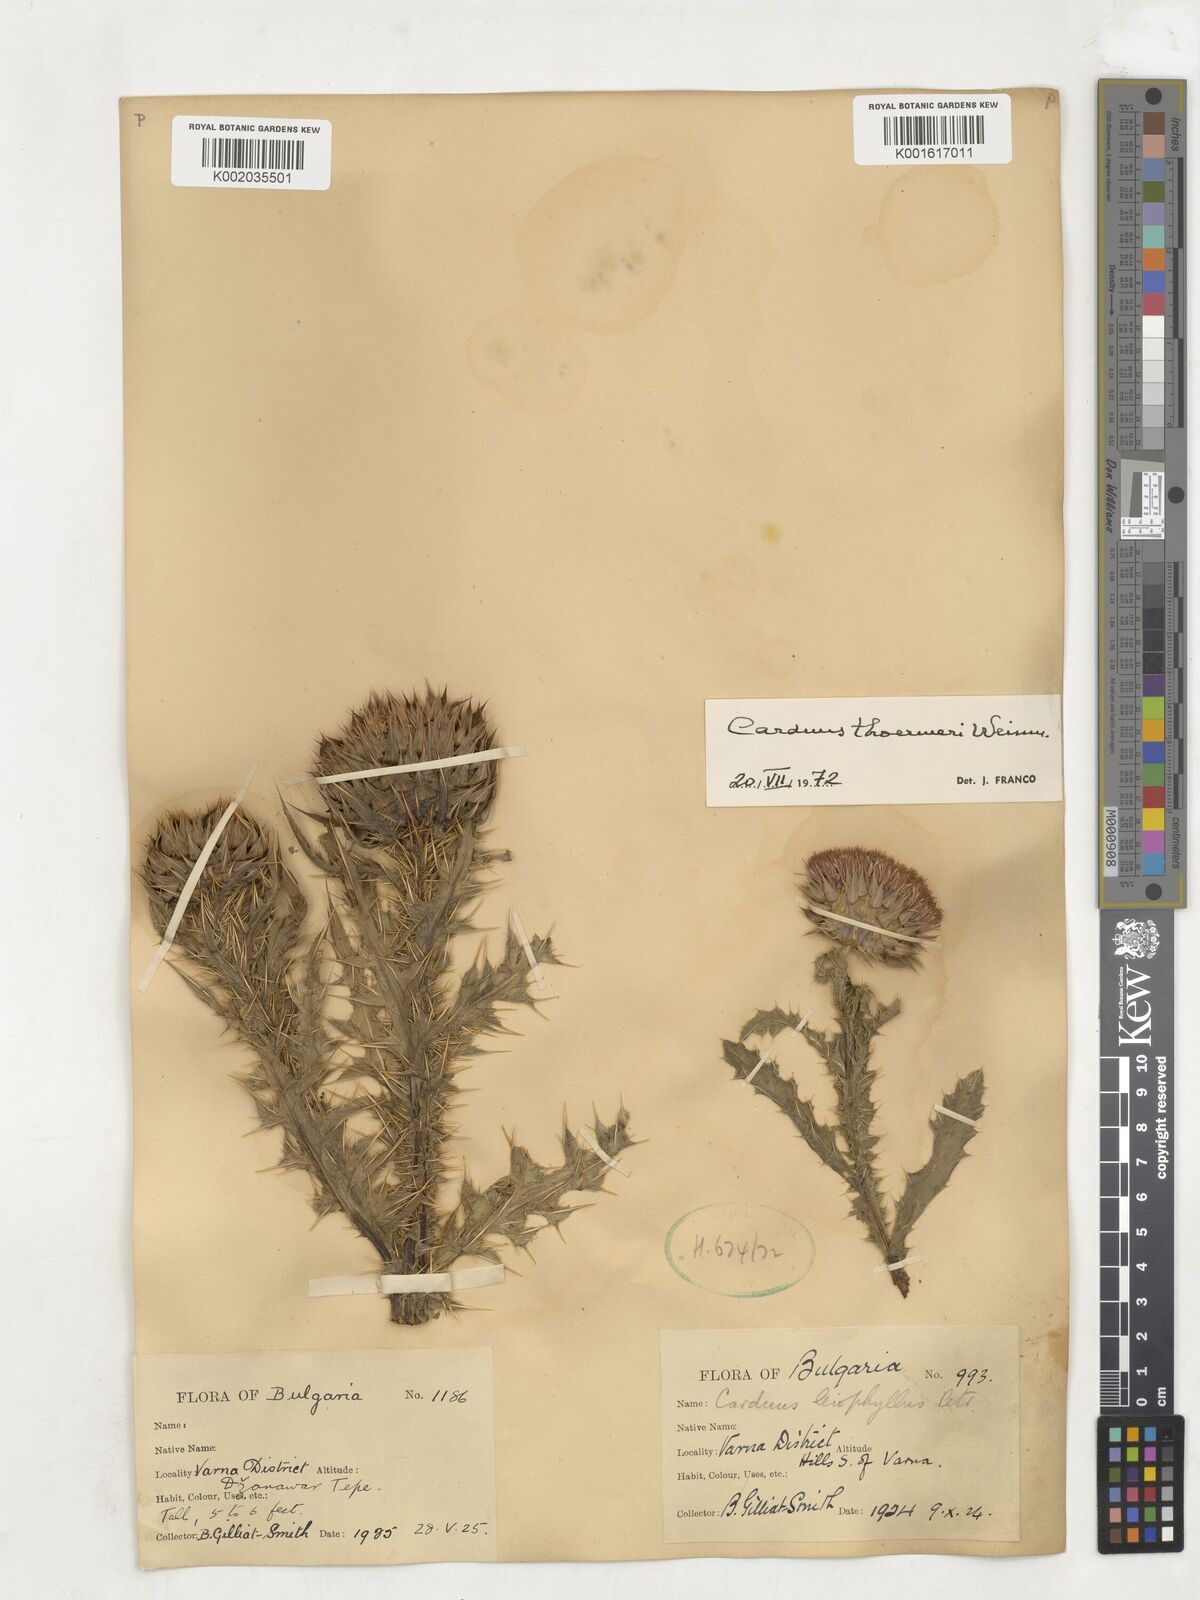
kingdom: Plantae
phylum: Tracheophyta
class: Magnoliopsida
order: Asterales
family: Asteraceae
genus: Carduus
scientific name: Carduus nutans
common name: Musk thistle
